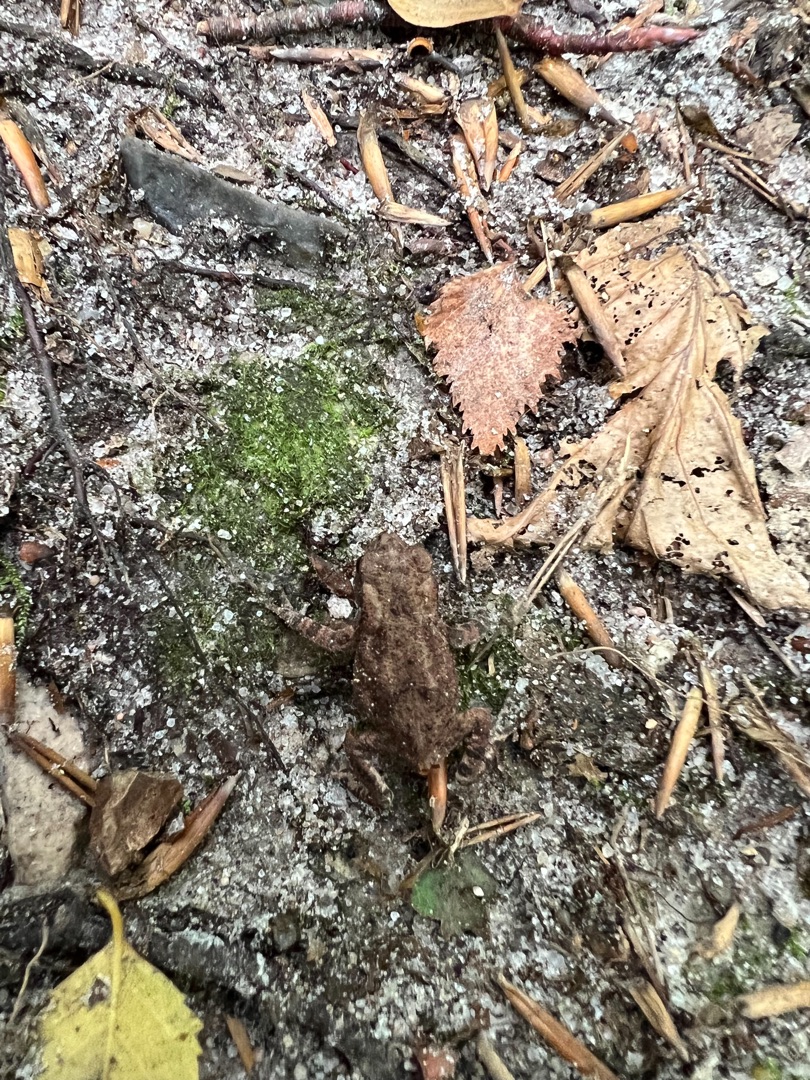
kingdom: Animalia
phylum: Chordata
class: Amphibia
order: Anura
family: Bufonidae
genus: Bufo
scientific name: Bufo bufo
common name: Skrubtudse
